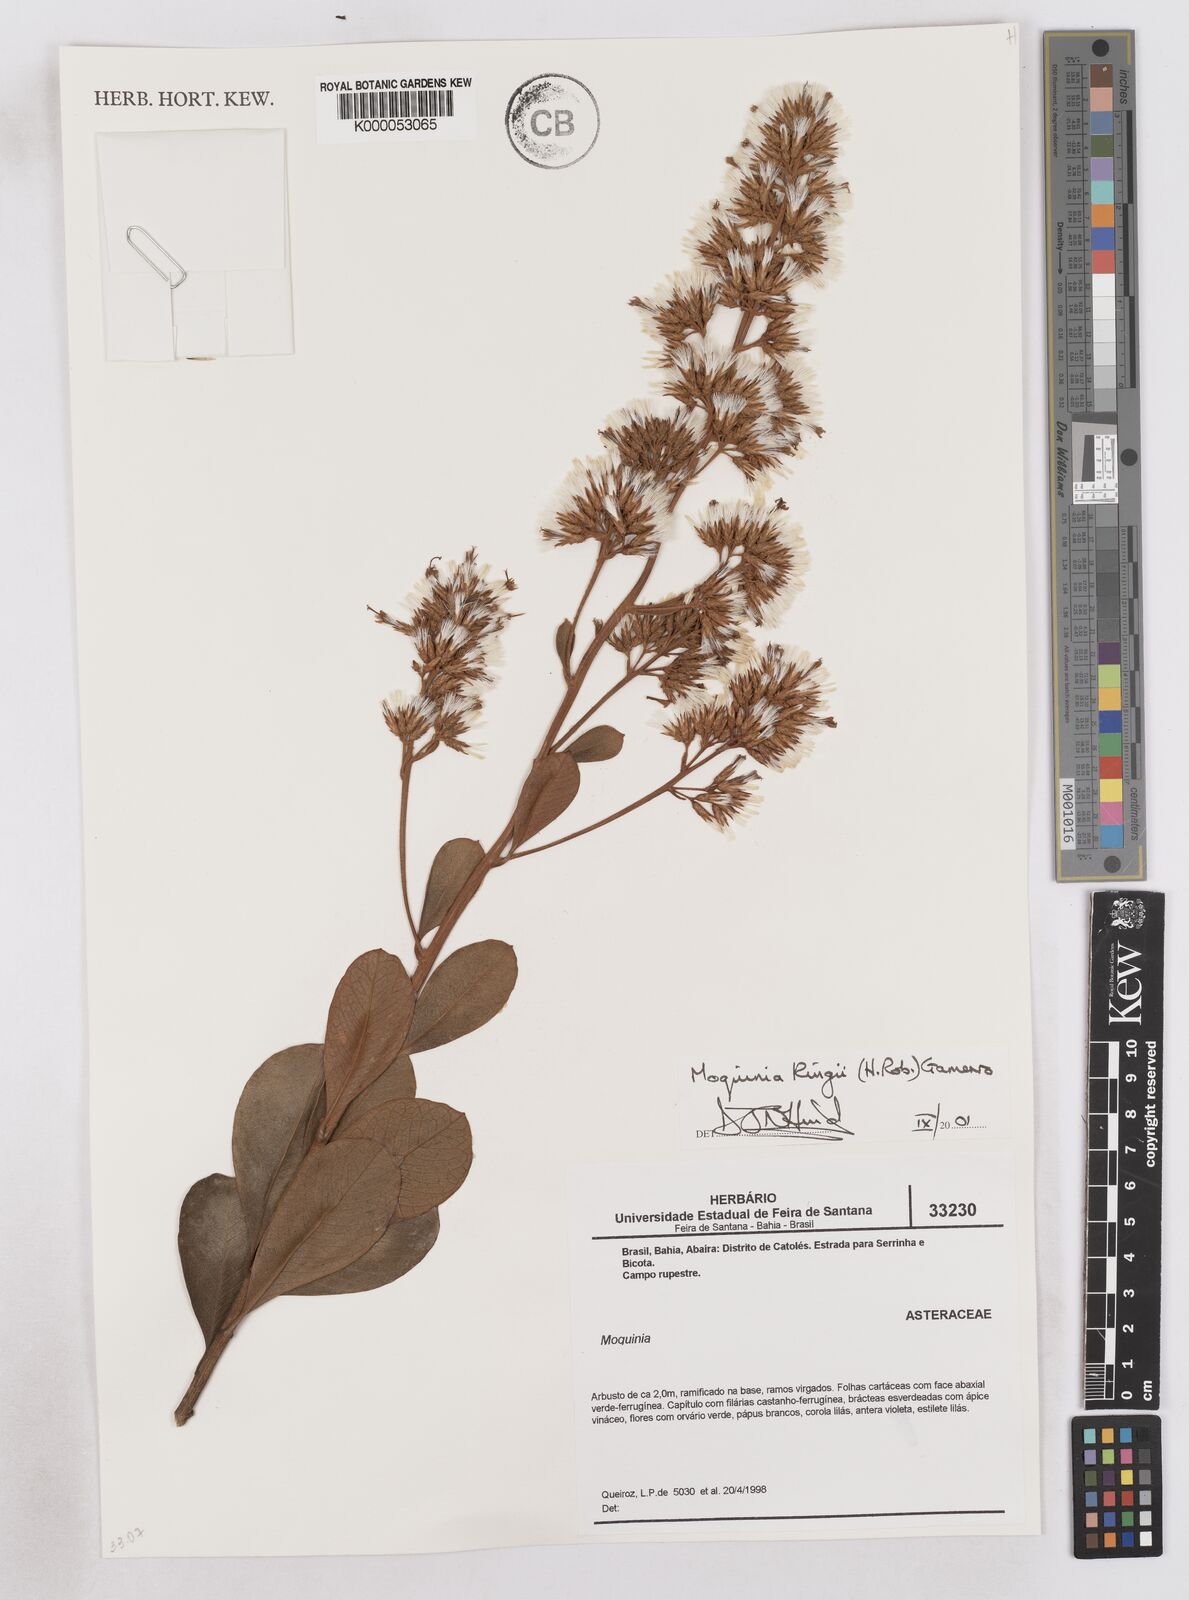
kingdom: Plantae
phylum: Tracheophyta
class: Magnoliopsida
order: Asterales
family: Asteraceae
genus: Pseudostifftia
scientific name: Pseudostifftia kingii
